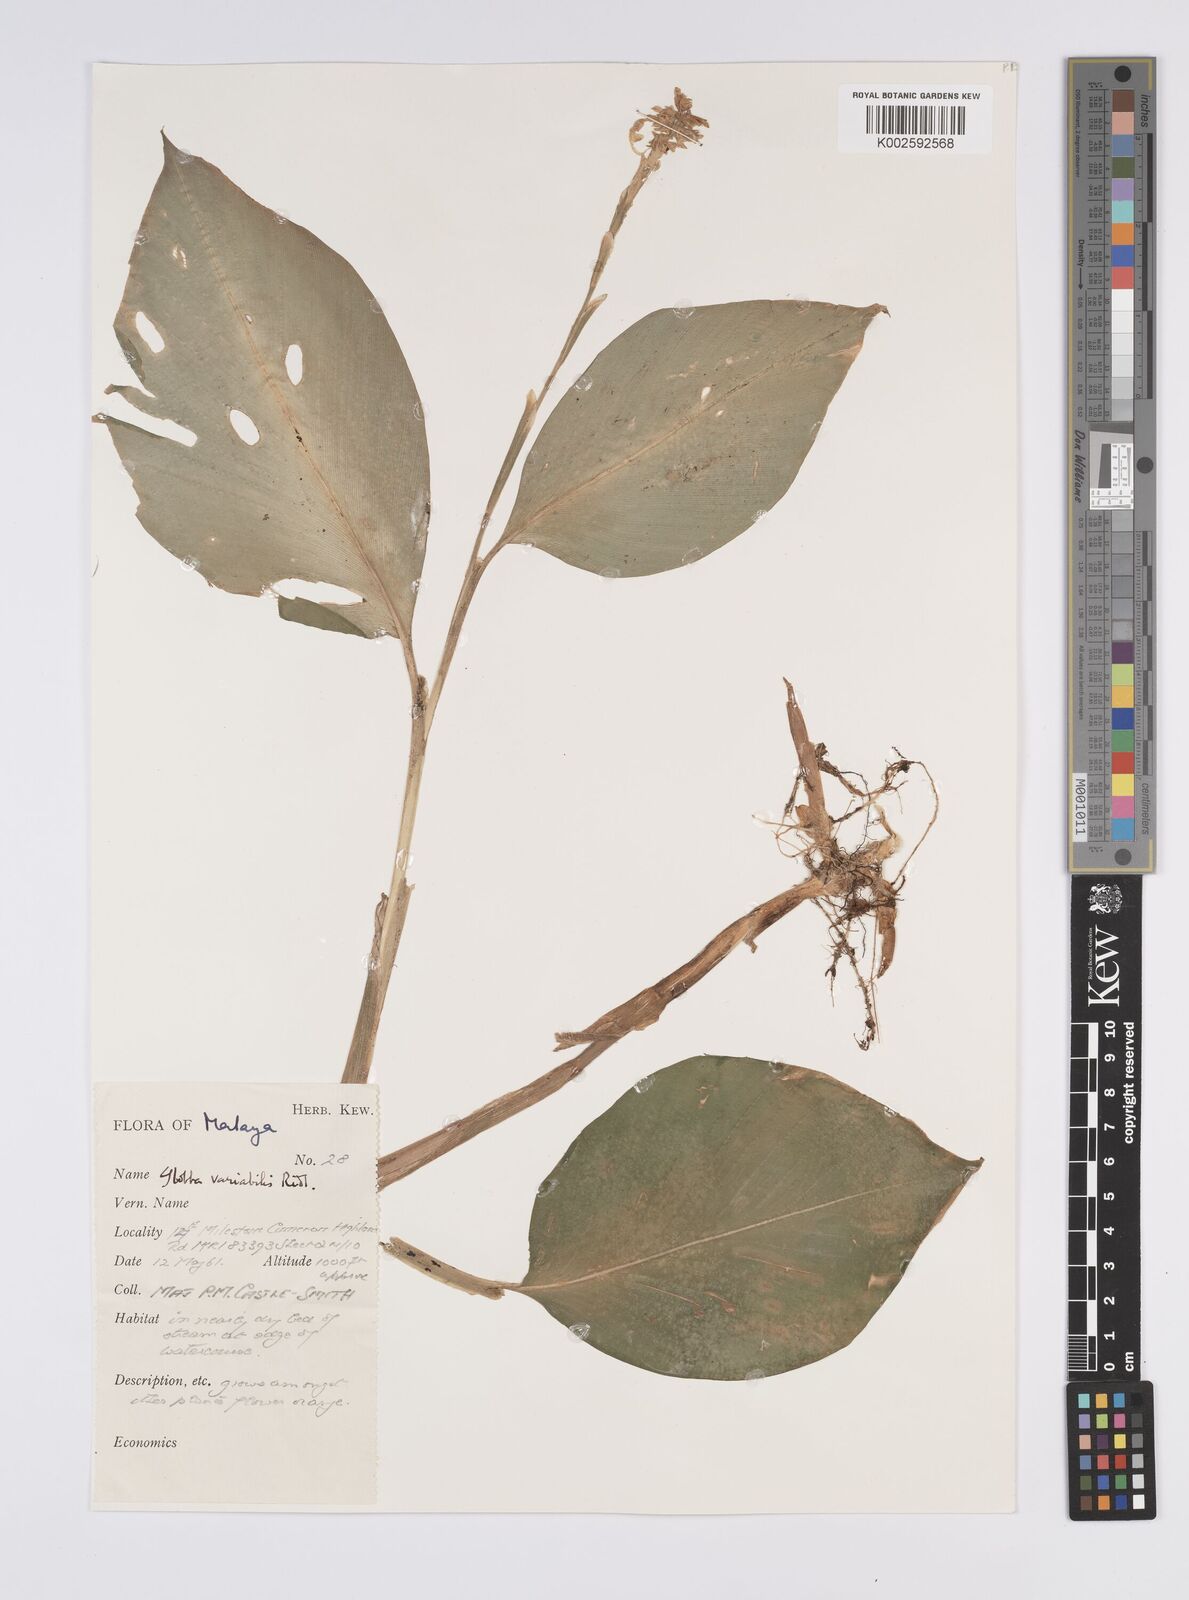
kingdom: Plantae
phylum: Tracheophyta
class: Liliopsida
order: Zingiberales
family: Zingiberaceae
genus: Globba
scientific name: Globba variabilis
